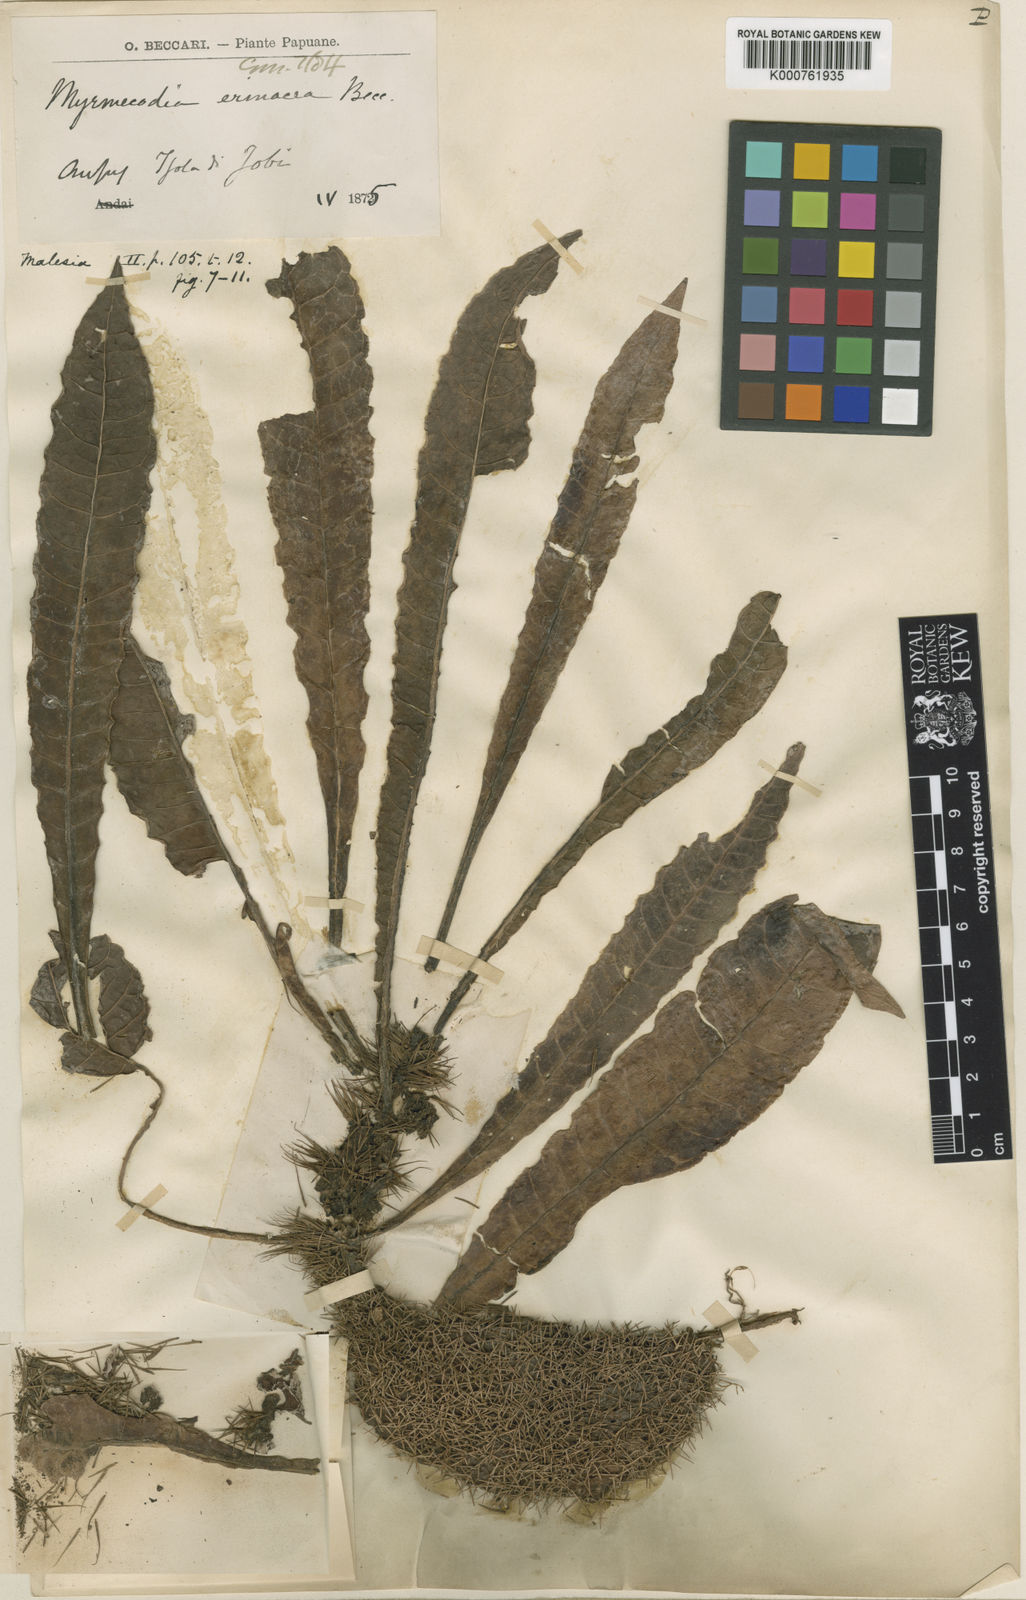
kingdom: Plantae
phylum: Tracheophyta
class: Magnoliopsida
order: Gentianales
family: Rubiaceae
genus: Myrmecodia
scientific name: Myrmecodia erinacea
